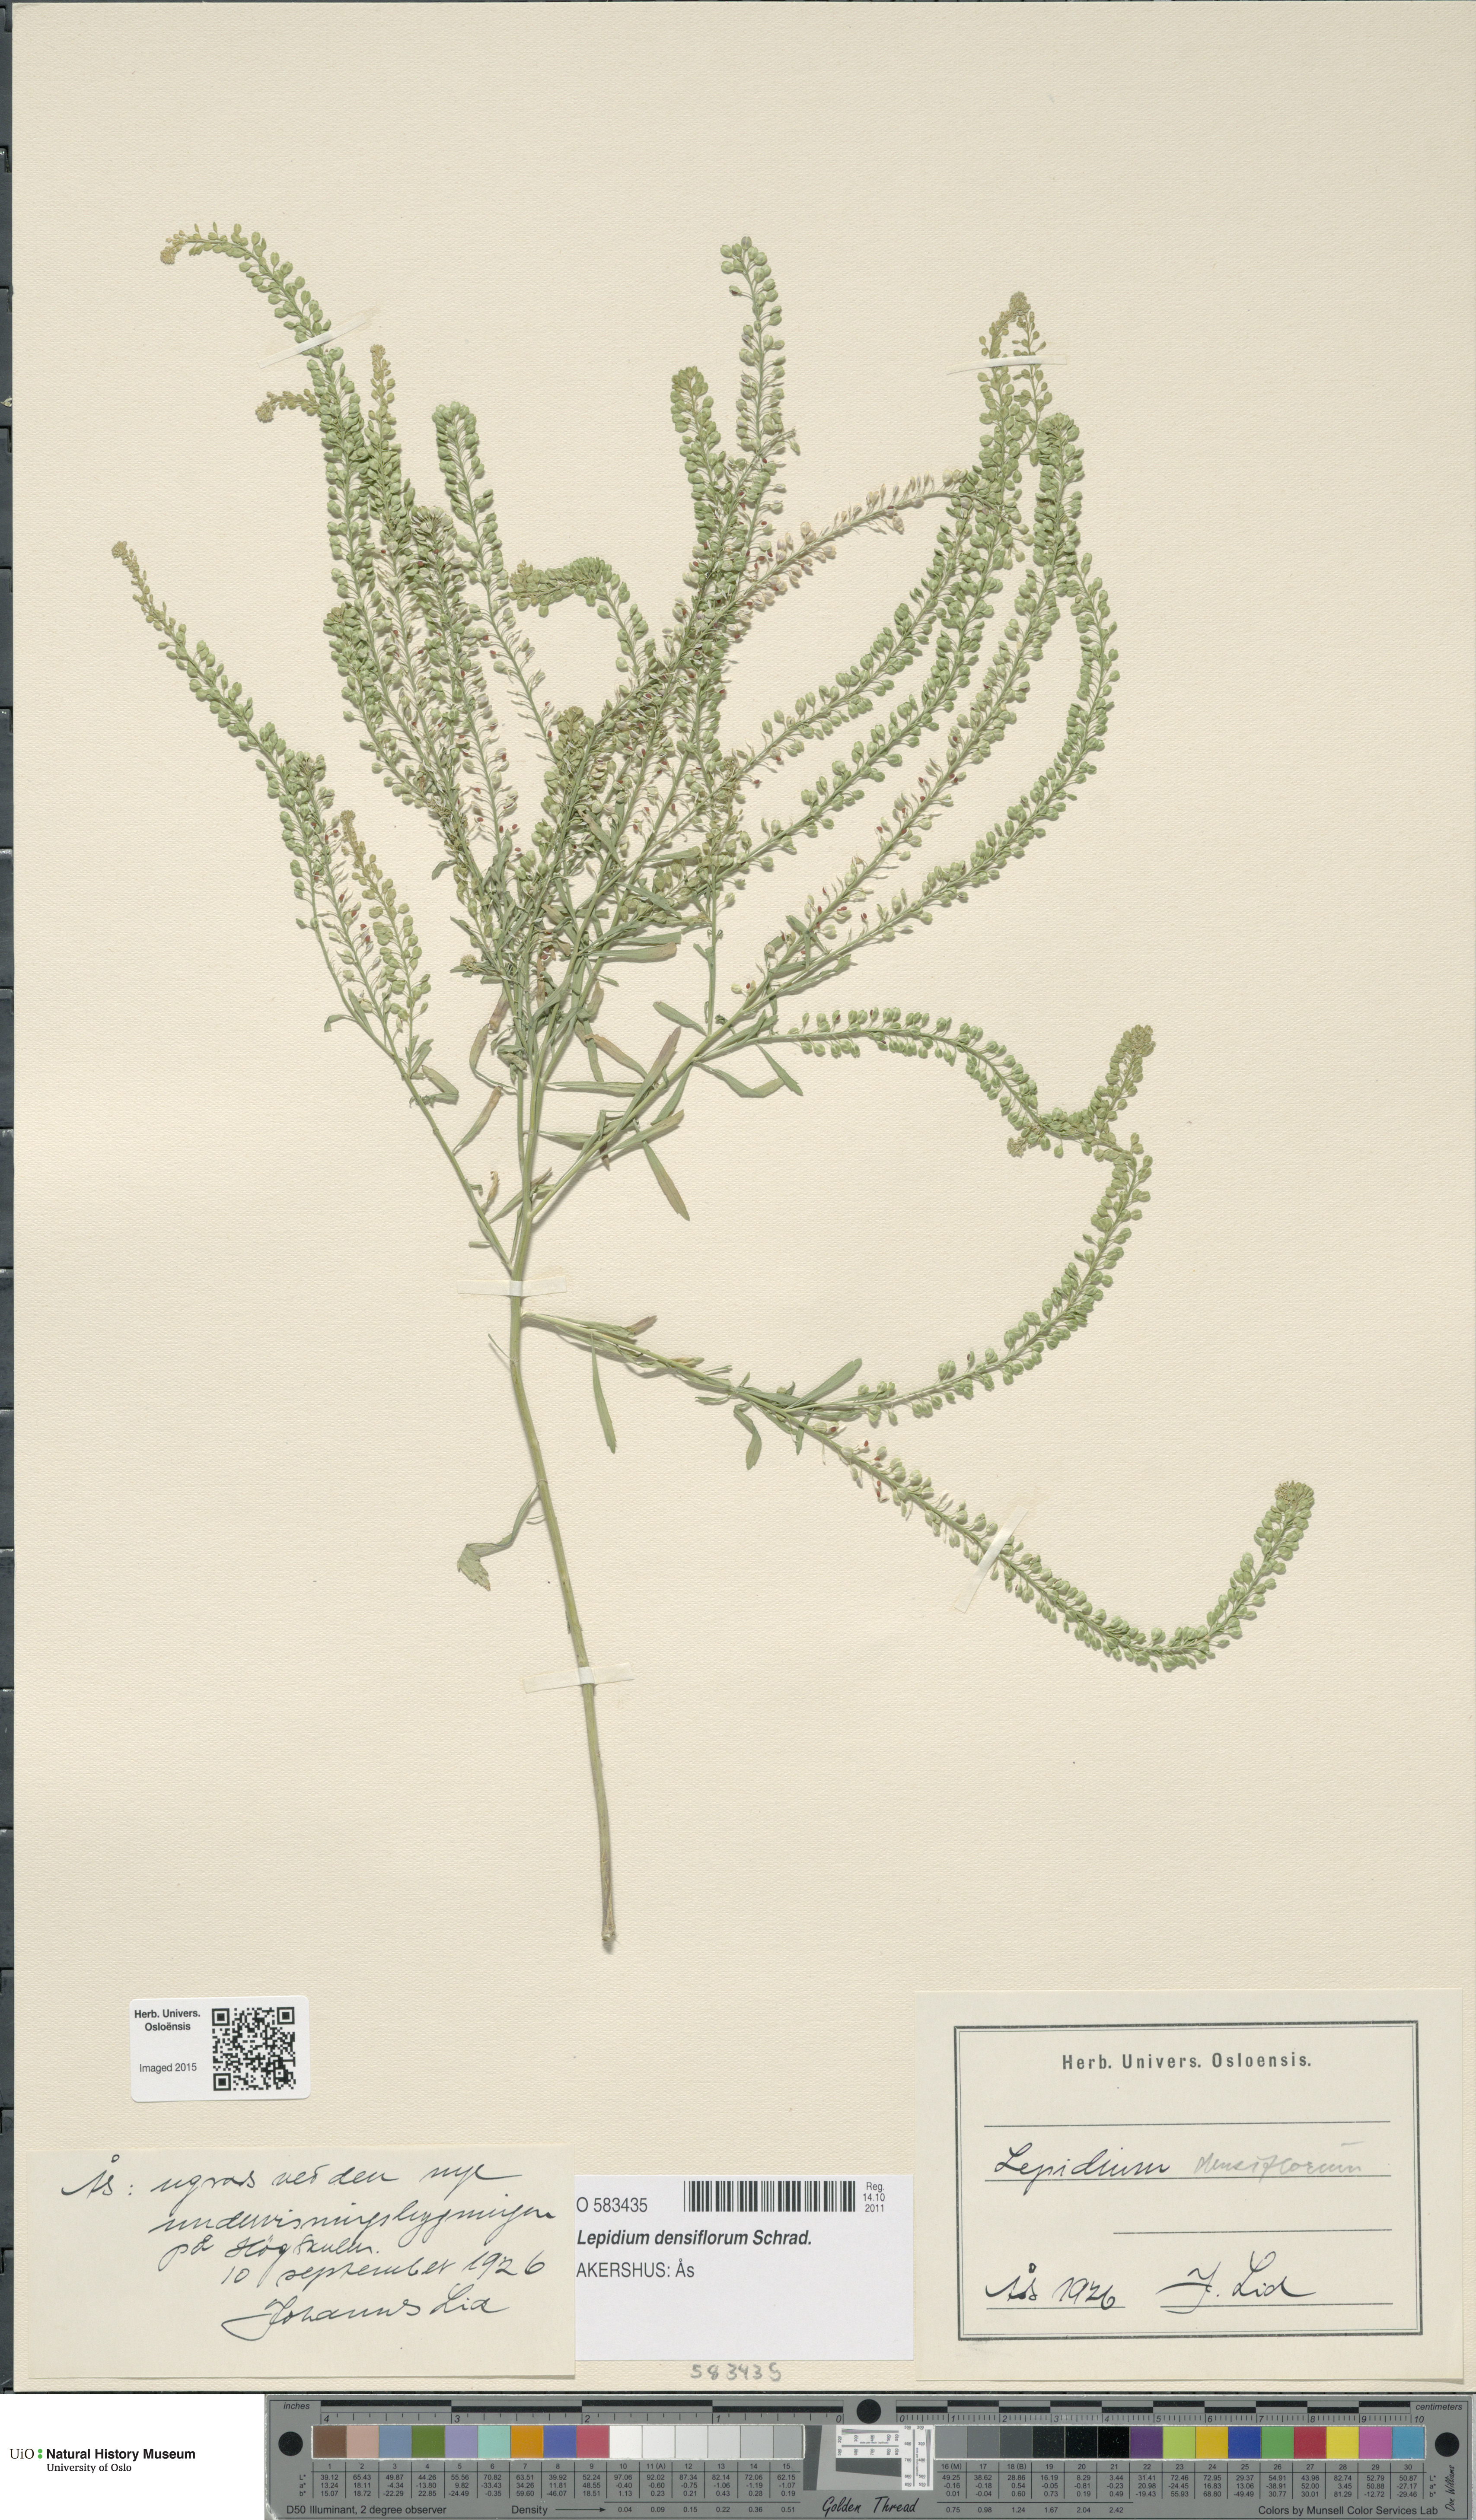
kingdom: Plantae
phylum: Tracheophyta
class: Magnoliopsida
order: Brassicales
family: Brassicaceae
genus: Lepidium
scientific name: Lepidium densiflorum
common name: Miner's pepperwort
